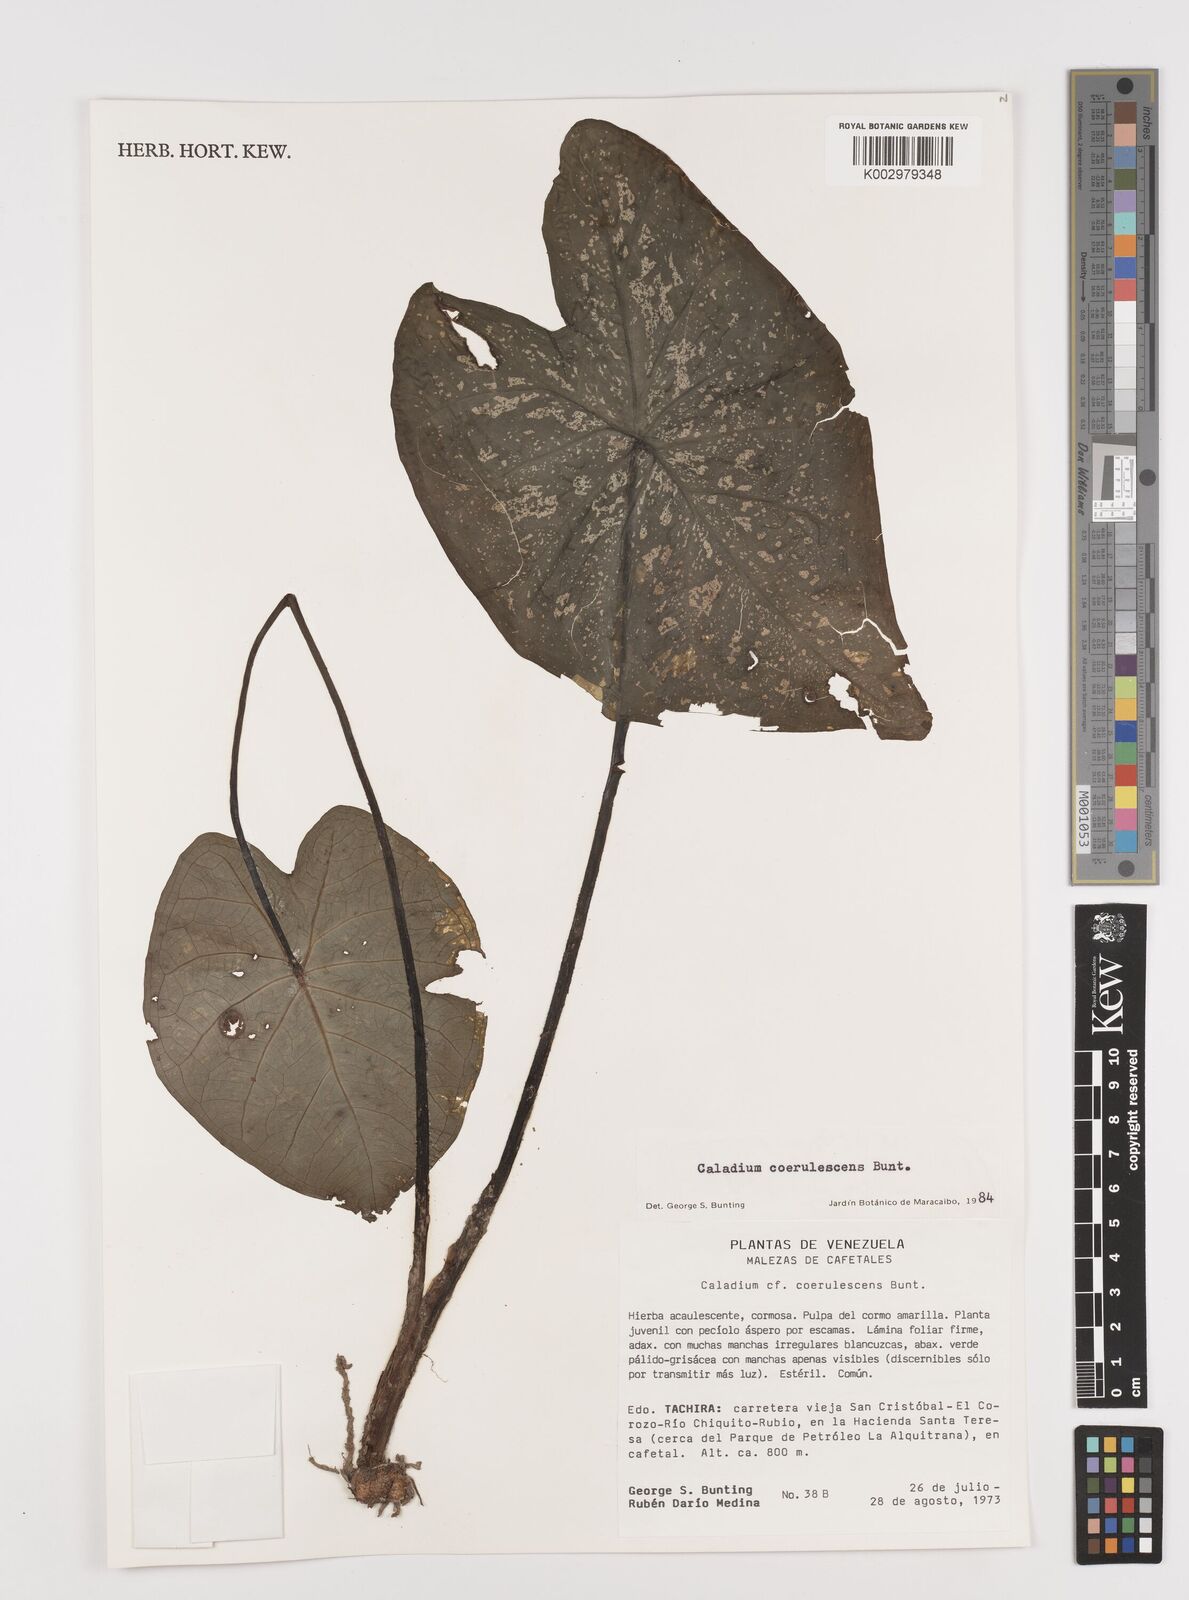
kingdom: Plantae
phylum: Tracheophyta
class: Liliopsida
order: Alismatales
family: Araceae
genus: Caladium
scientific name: Caladium coerulescens
